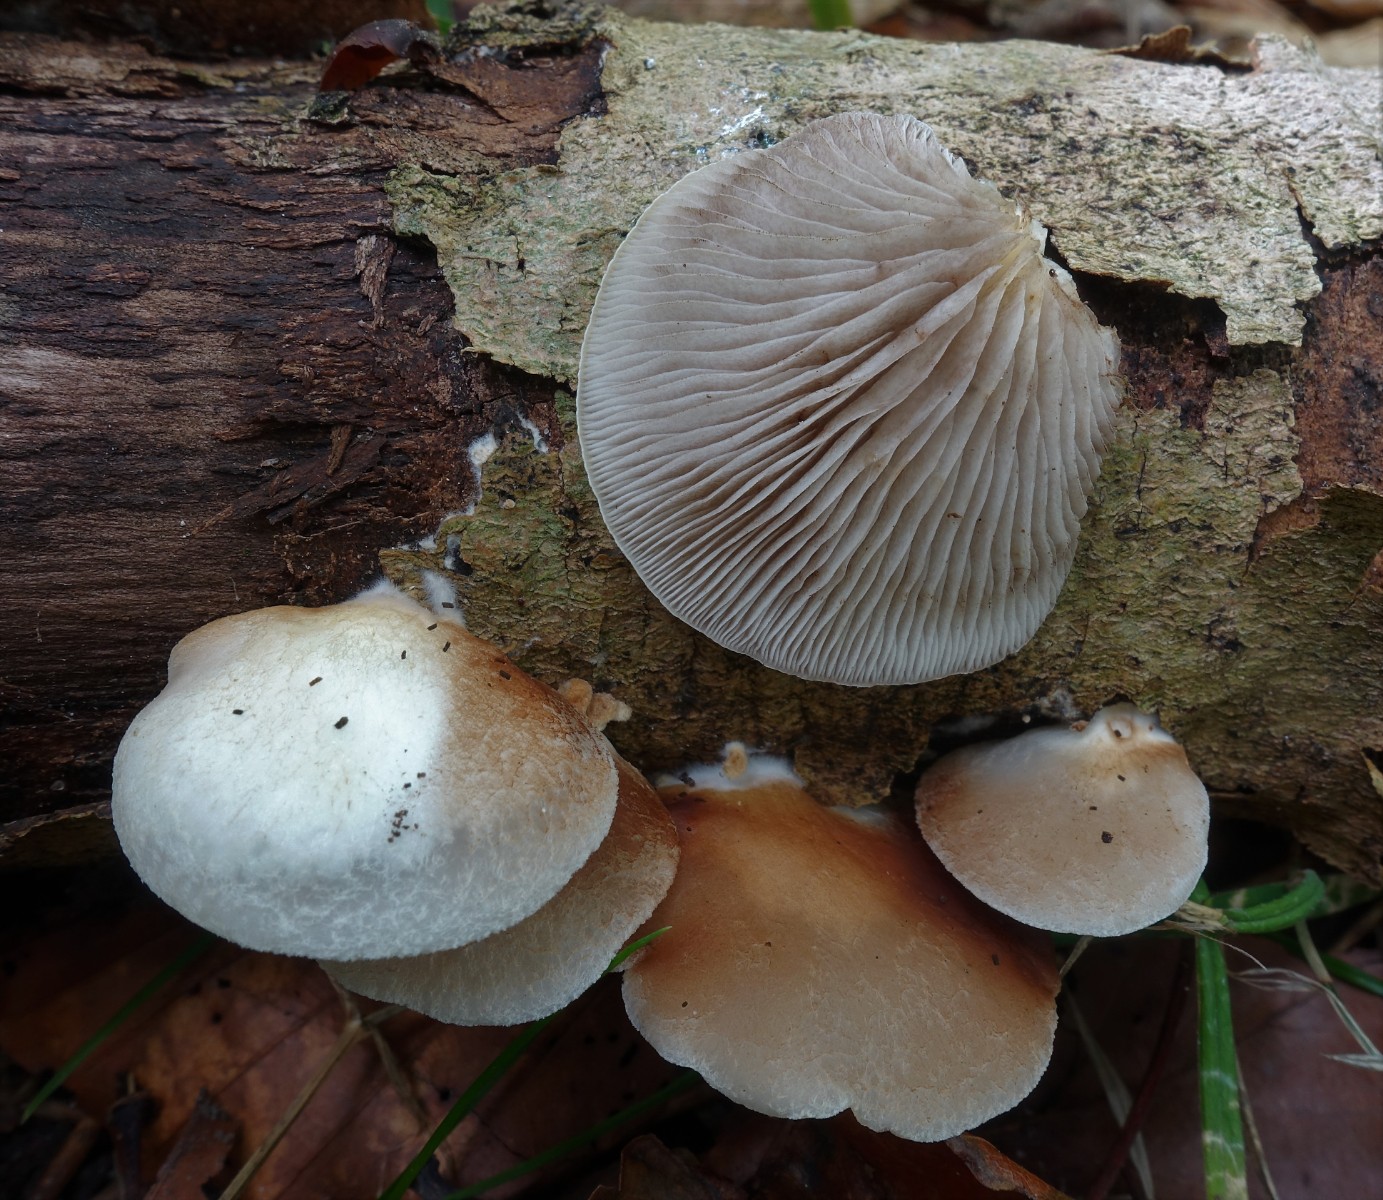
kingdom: Fungi
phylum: Basidiomycota
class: Agaricomycetes
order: Agaricales
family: Crepidotaceae
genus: Crepidotus
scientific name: Crepidotus mollis
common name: blød muslingesvamp
